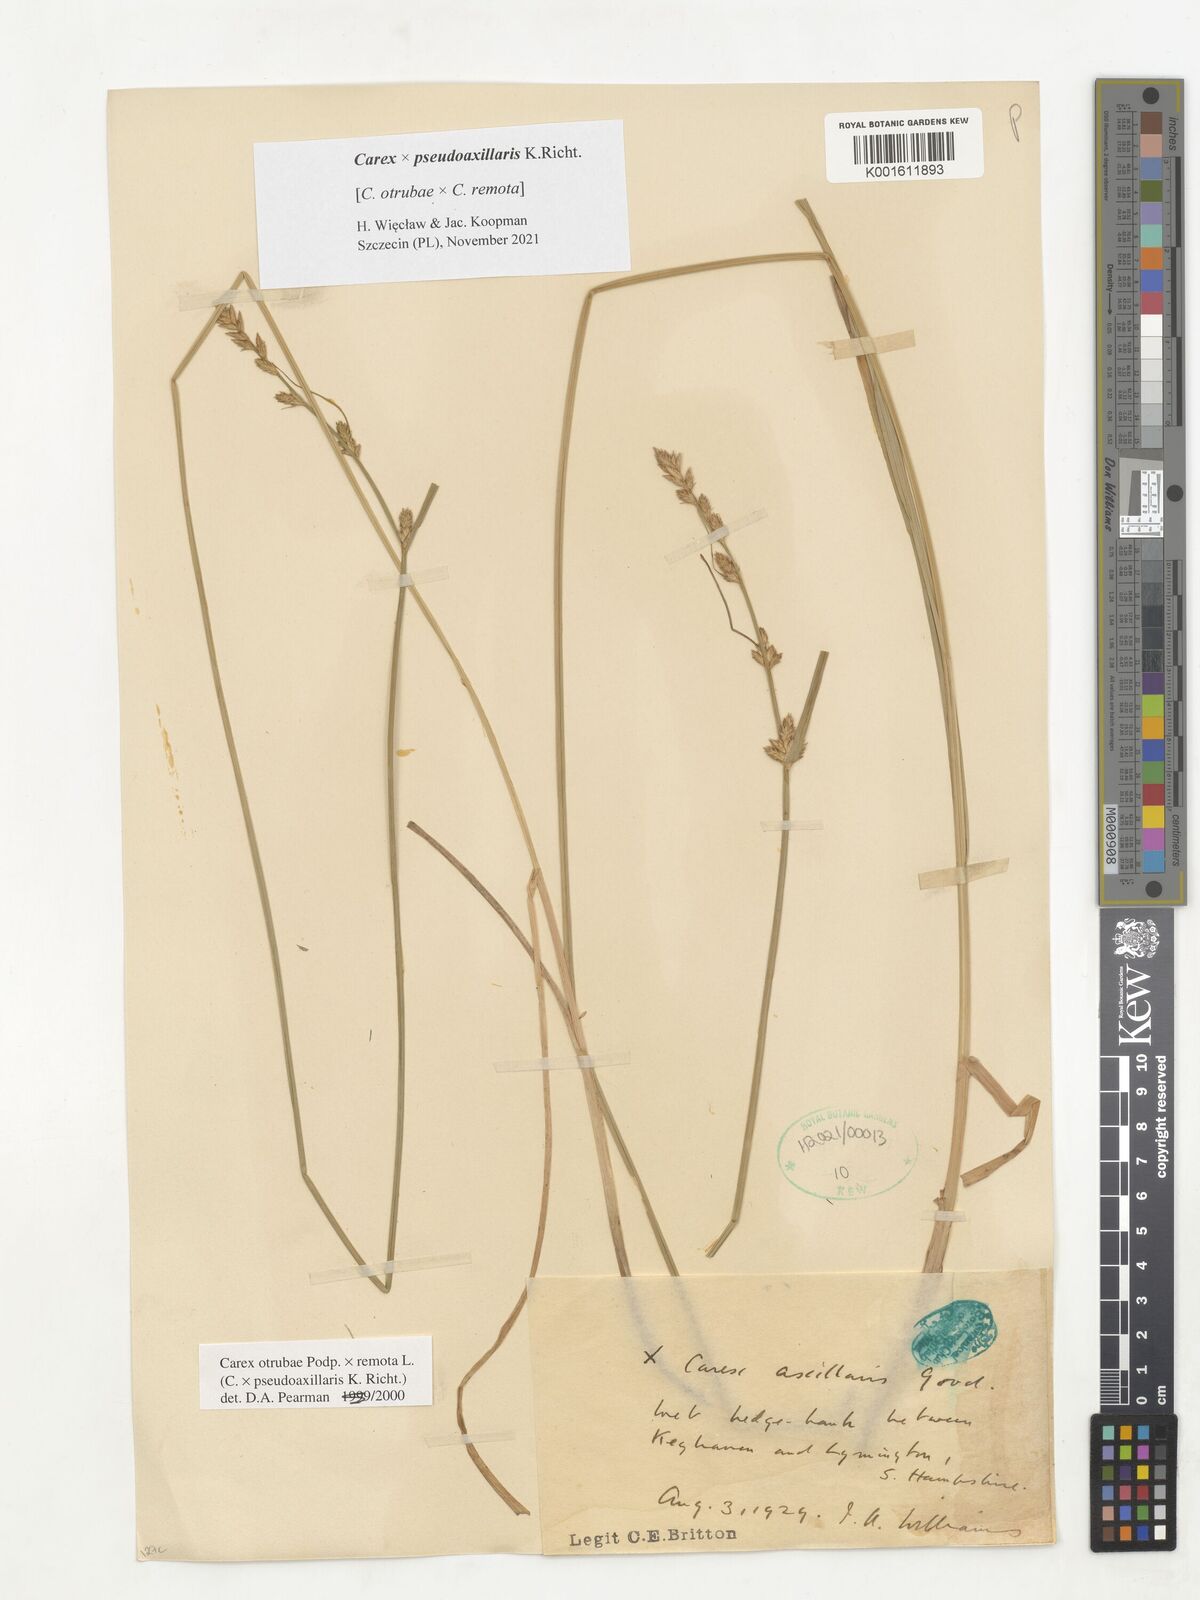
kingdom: Plantae
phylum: Tracheophyta
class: Liliopsida
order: Poales
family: Cyperaceae
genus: Carex
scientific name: Carex pseudoaxillaris
